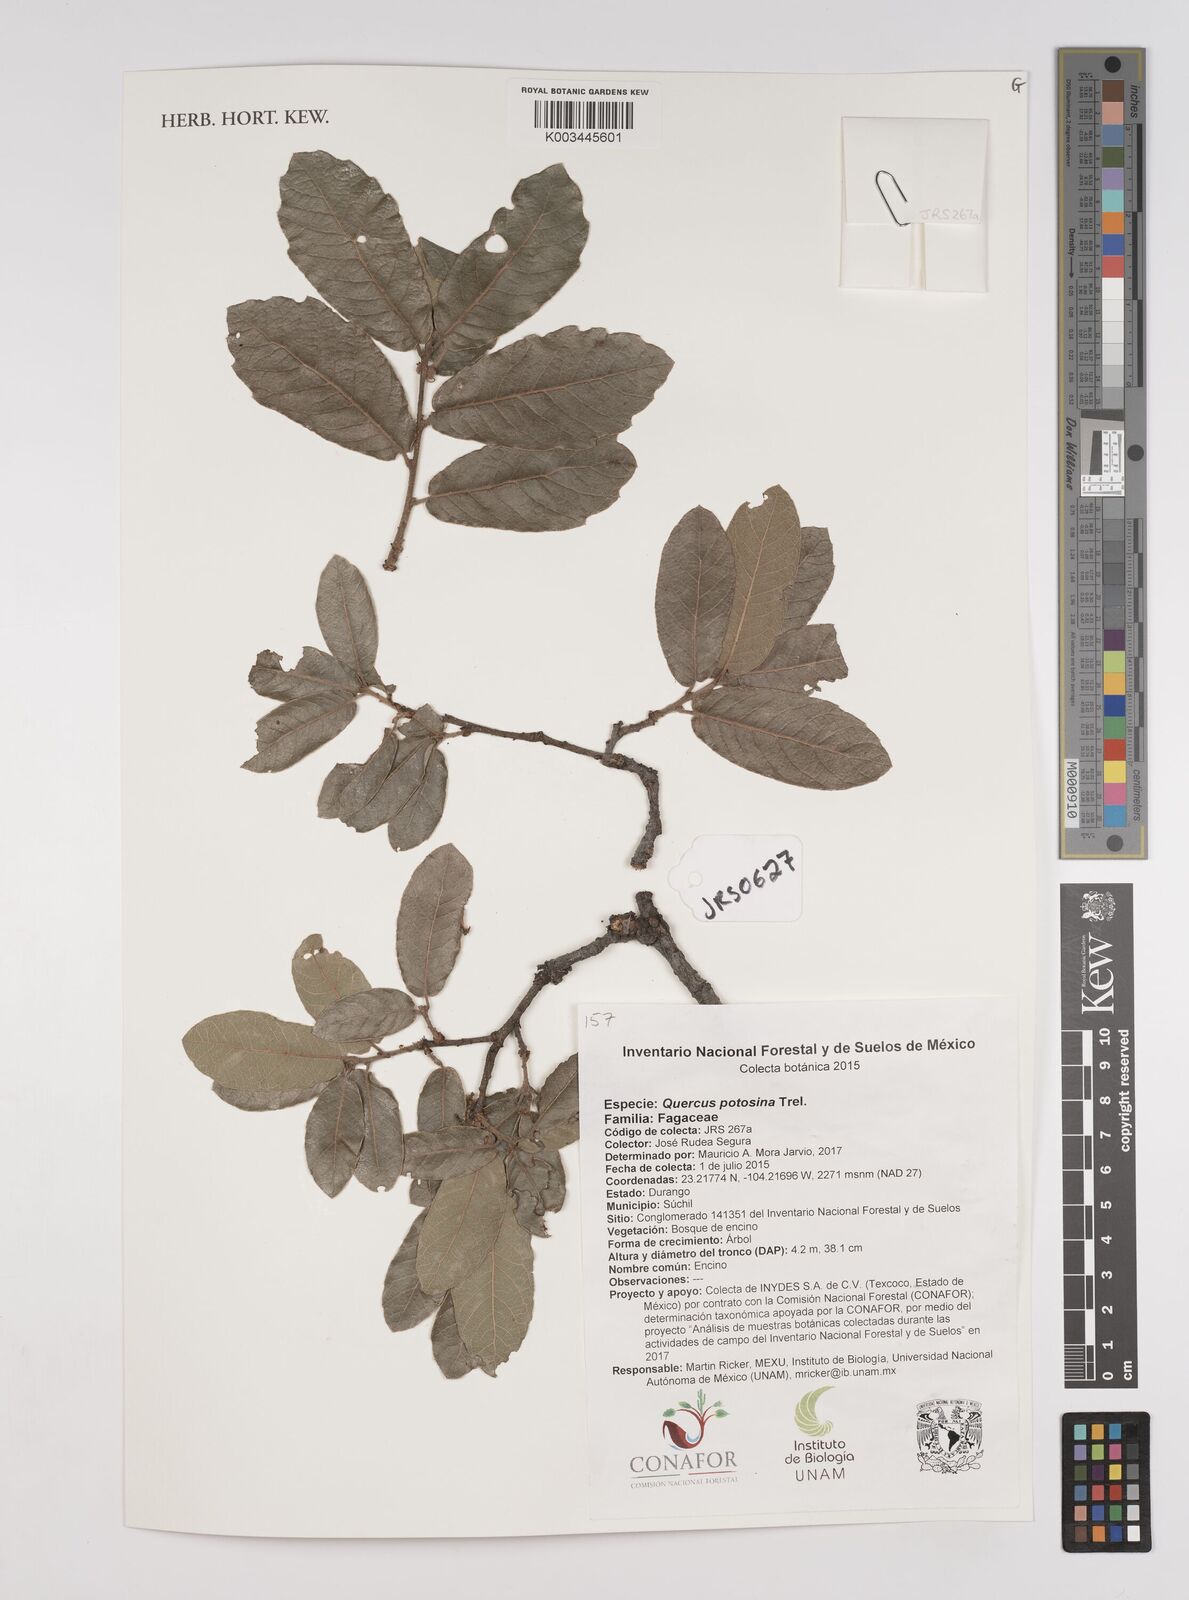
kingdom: Plantae
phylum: Tracheophyta
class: Magnoliopsida
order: Fagales
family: Fagaceae
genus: Quercus
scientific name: Quercus potosina
